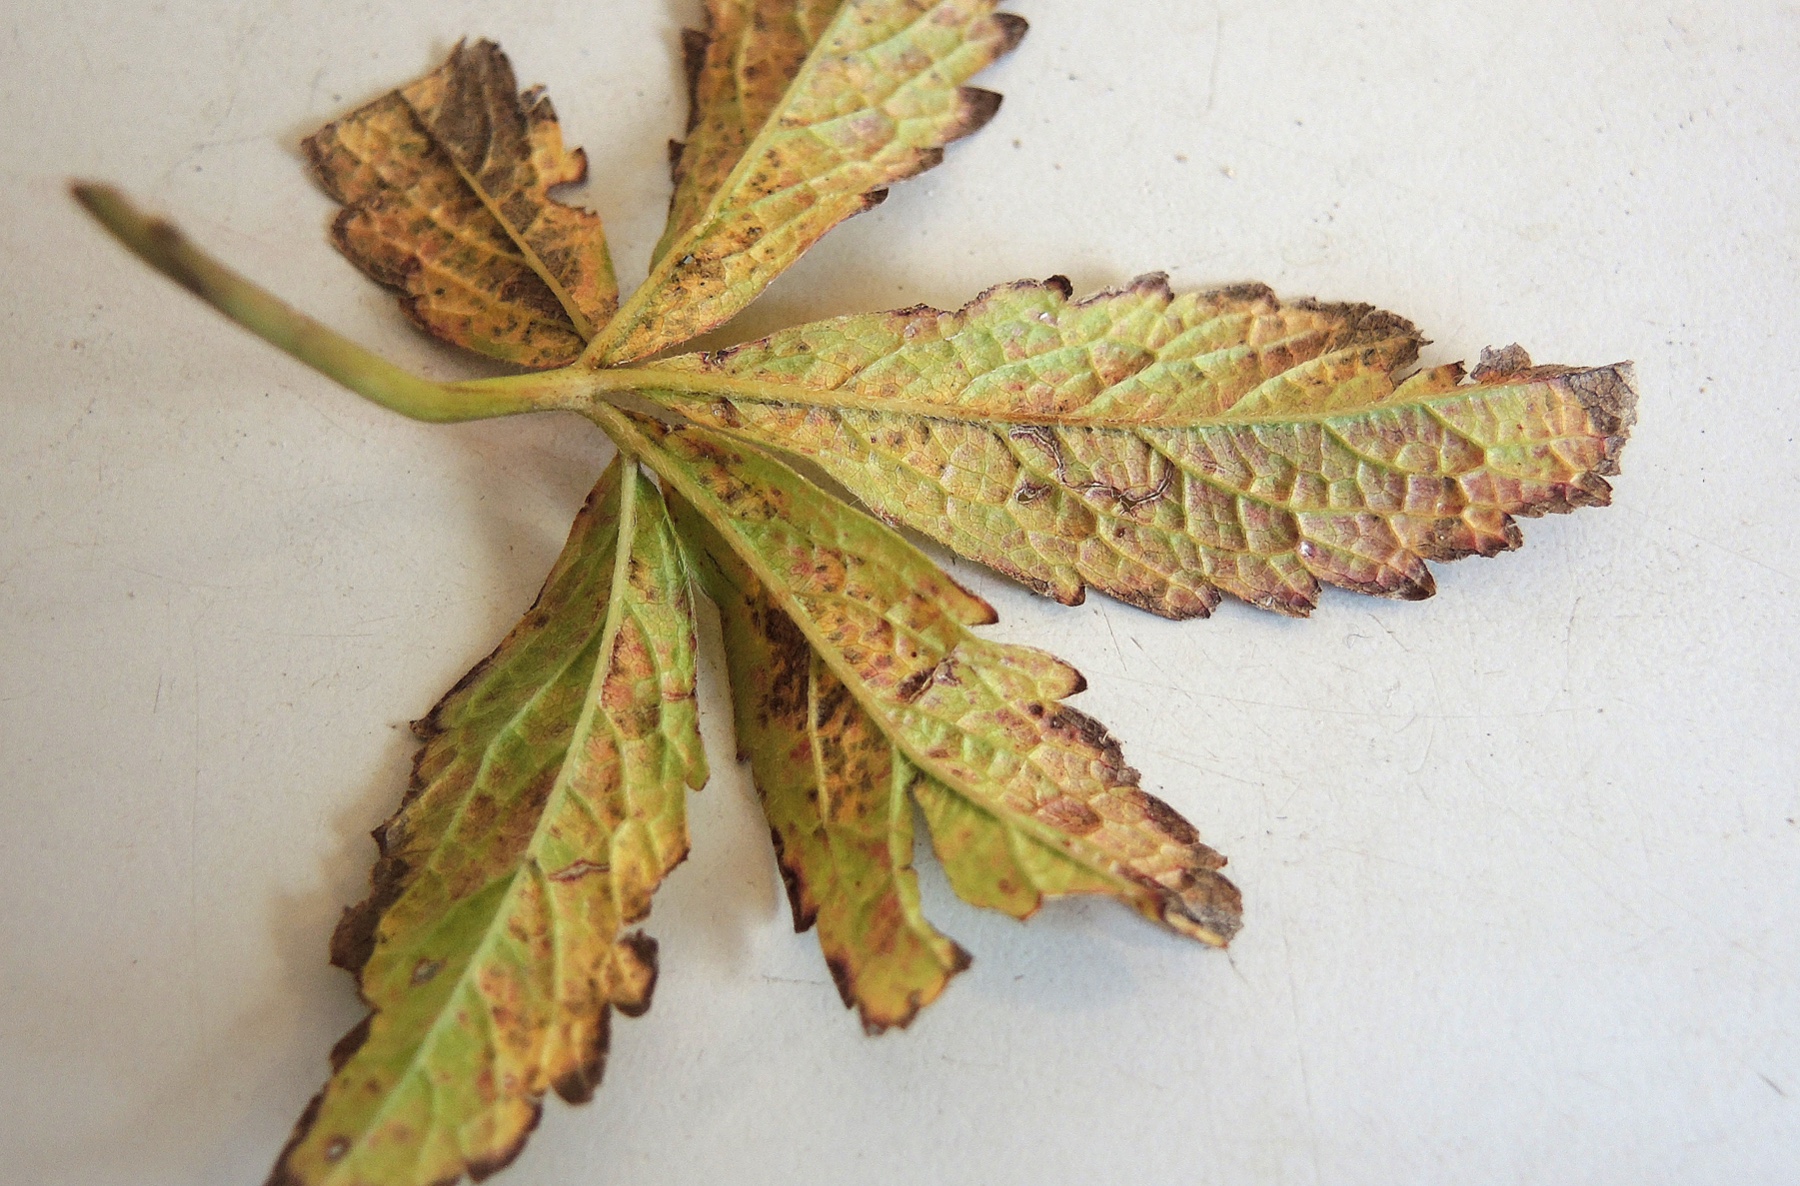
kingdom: Fungi
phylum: Ascomycota
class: Leotiomycetes
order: Helotiales
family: Drepanopezizaceae
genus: Diplocarpon
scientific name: Diplocarpon earlianum
